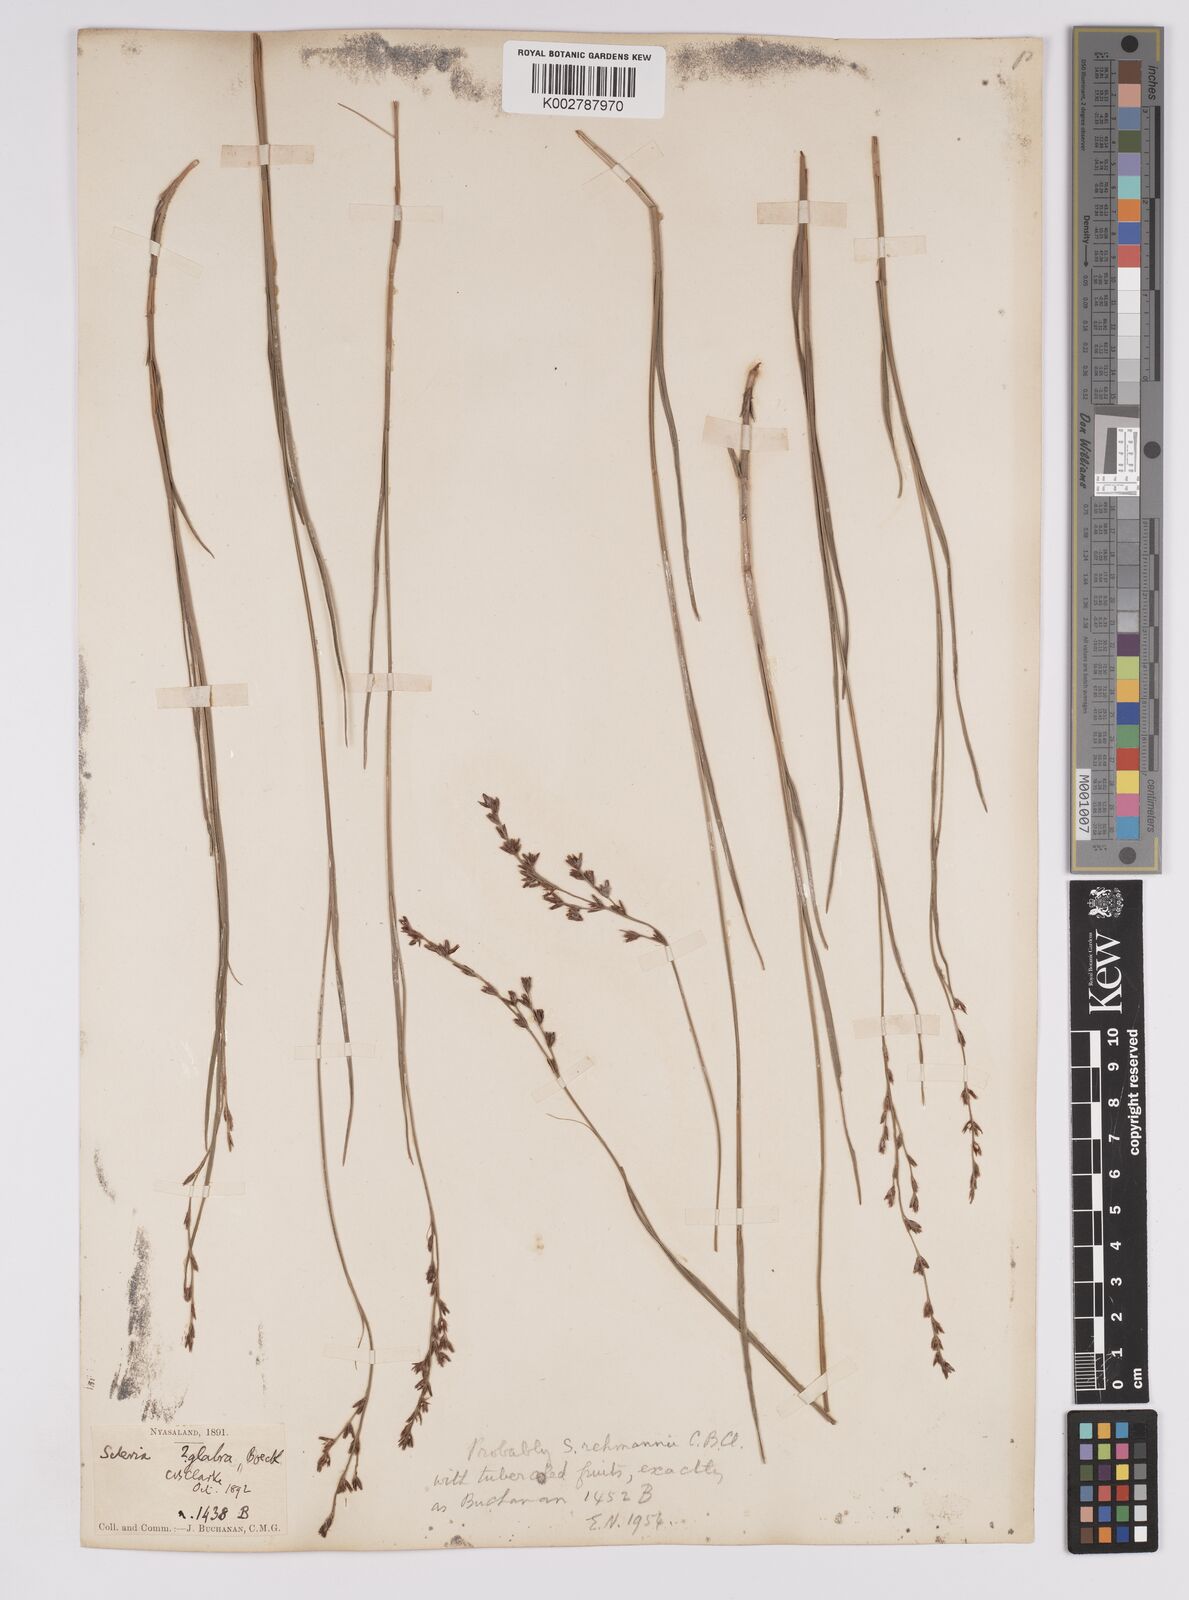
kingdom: Plantae
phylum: Tracheophyta
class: Liliopsida
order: Poales
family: Cyperaceae
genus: Scleria
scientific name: Scleria rehmannii
